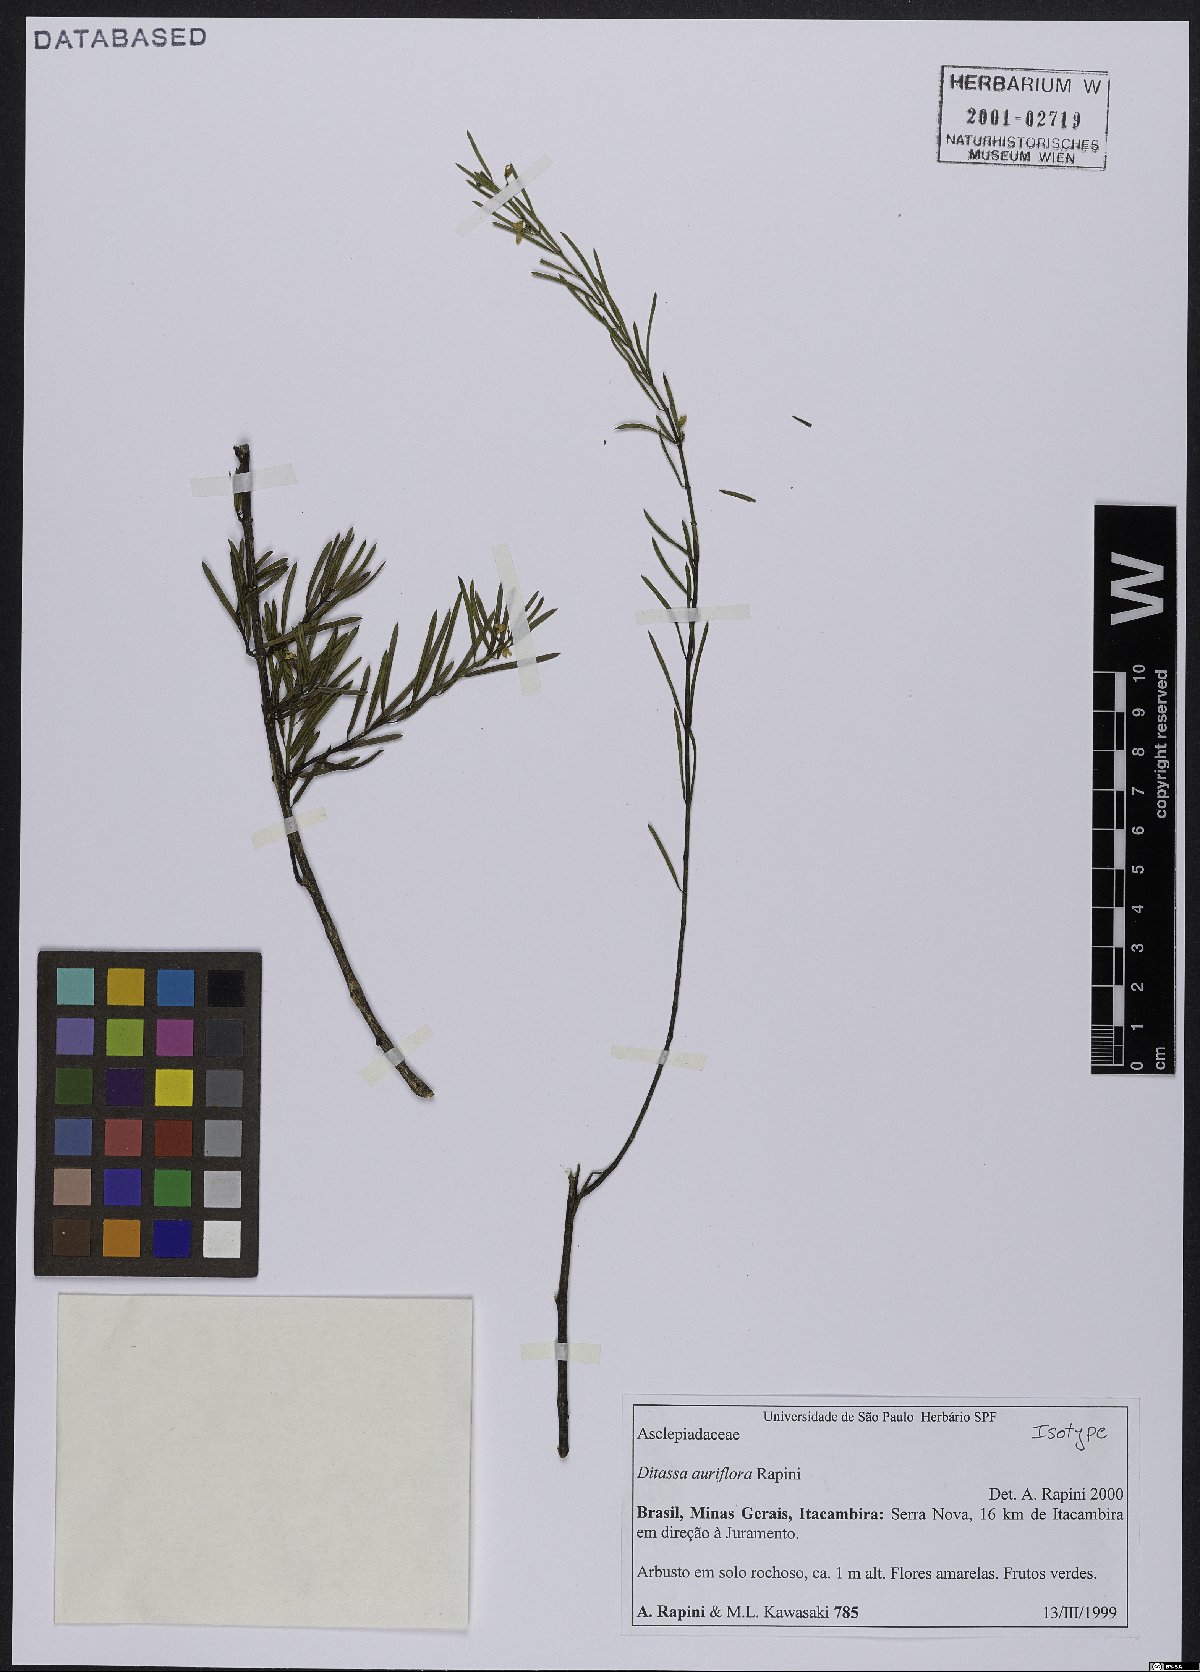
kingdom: Plantae
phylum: Tracheophyta
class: Magnoliopsida
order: Gentianales
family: Apocynaceae
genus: Ditassa
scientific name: Ditassa auriflora
